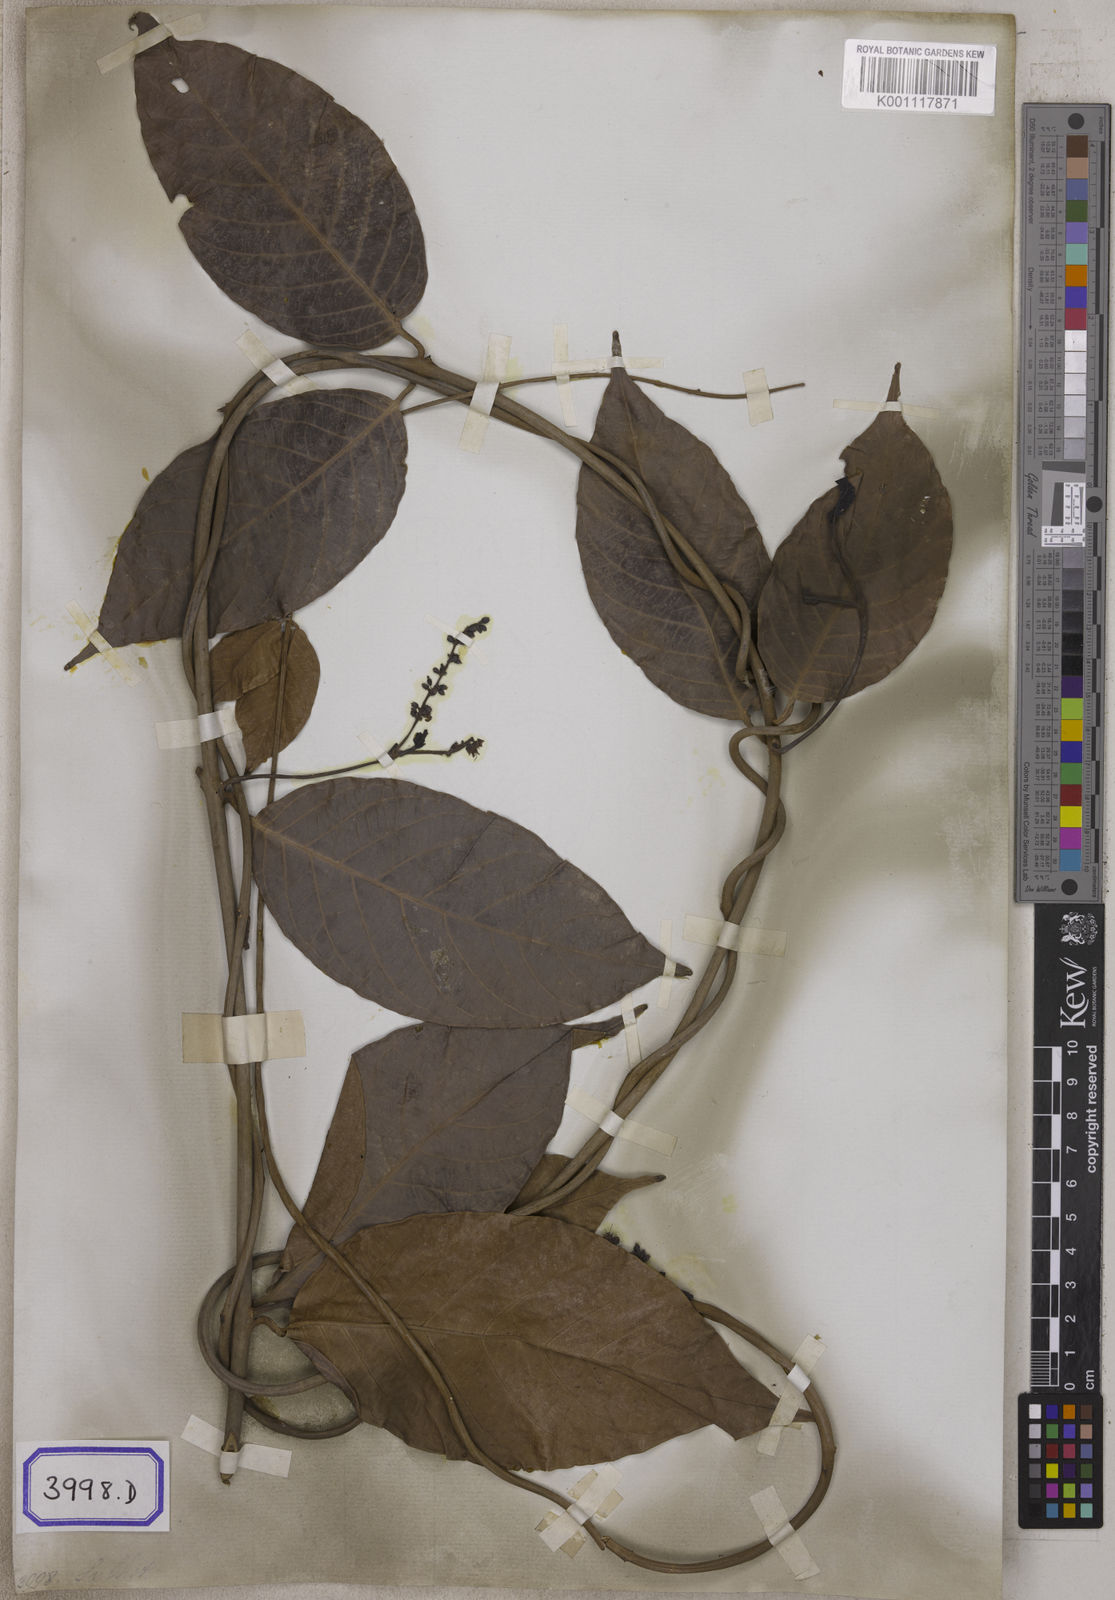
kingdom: Plantae
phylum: Tracheophyta
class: Magnoliopsida
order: Myrtales
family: Combretaceae
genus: Combretum
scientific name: Combretum acuminatum
